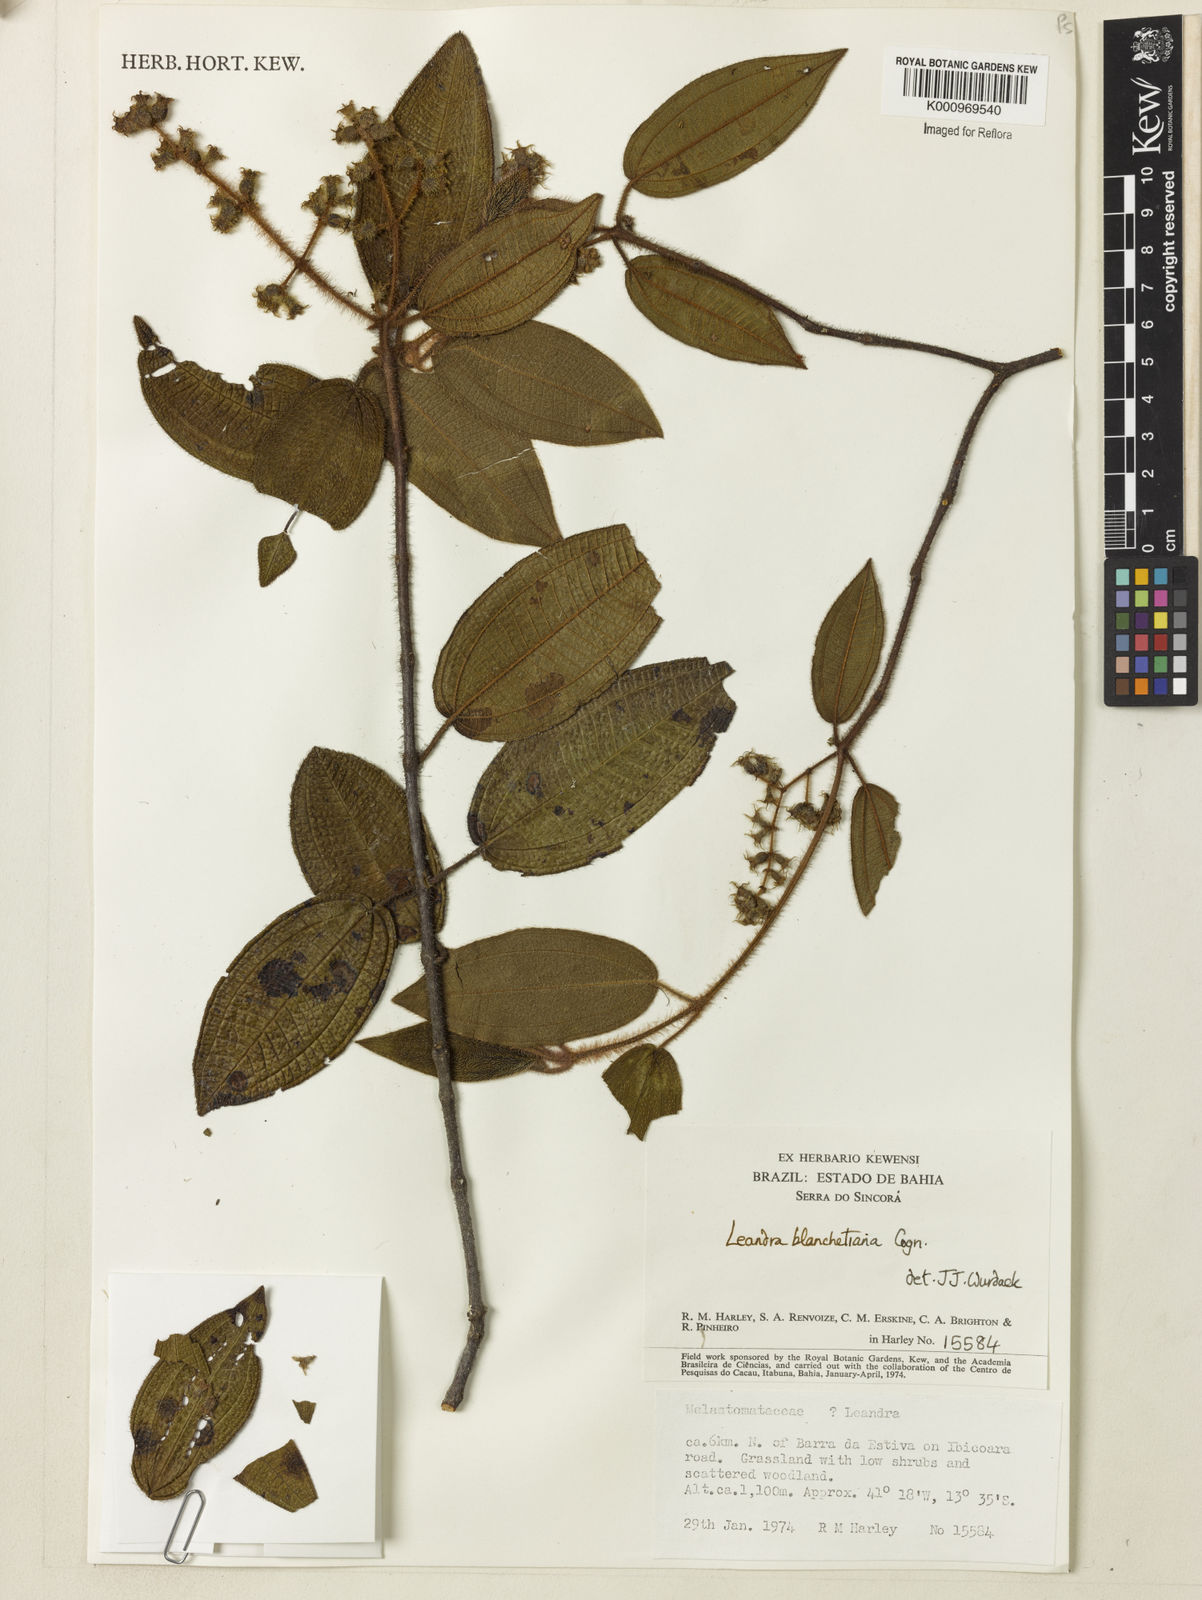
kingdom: Plantae
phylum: Tracheophyta
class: Magnoliopsida
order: Myrtales
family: Melastomataceae
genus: Miconia
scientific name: Miconia leablanchetiana
